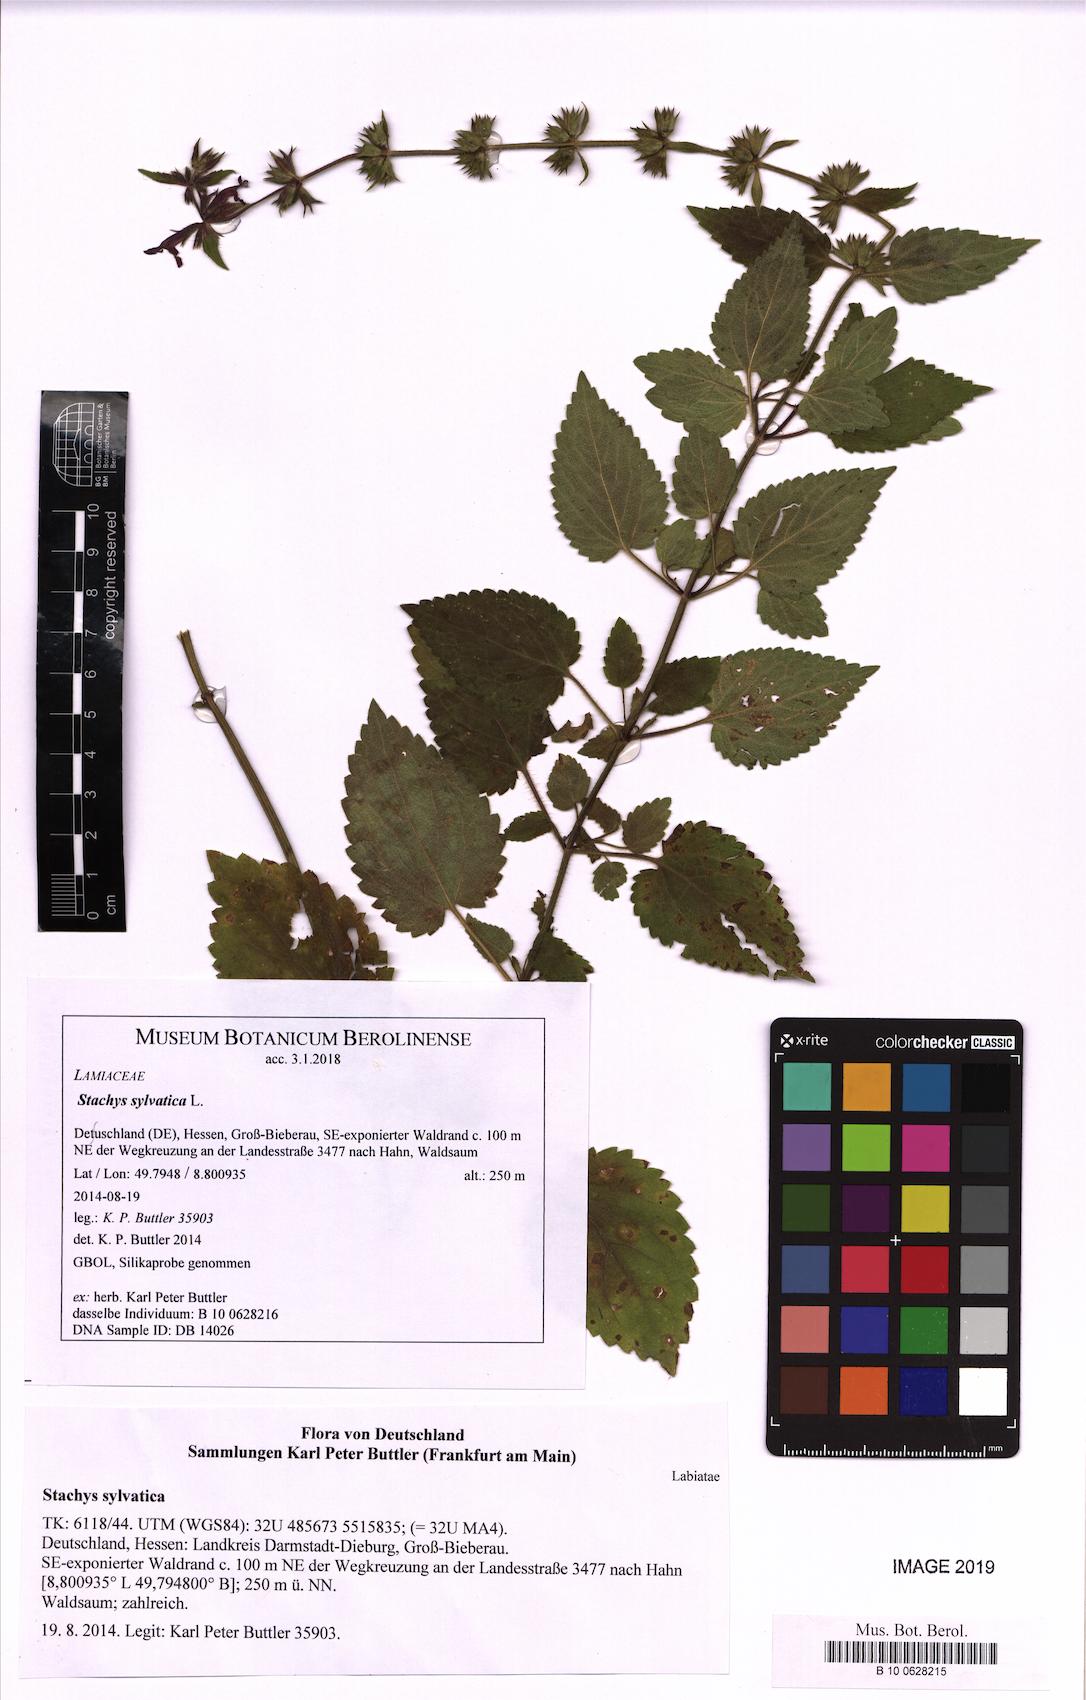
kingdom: Plantae
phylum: Tracheophyta
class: Magnoliopsida
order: Lamiales
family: Lamiaceae
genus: Stachys
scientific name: Stachys sylvatica
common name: Hedge woundwort
